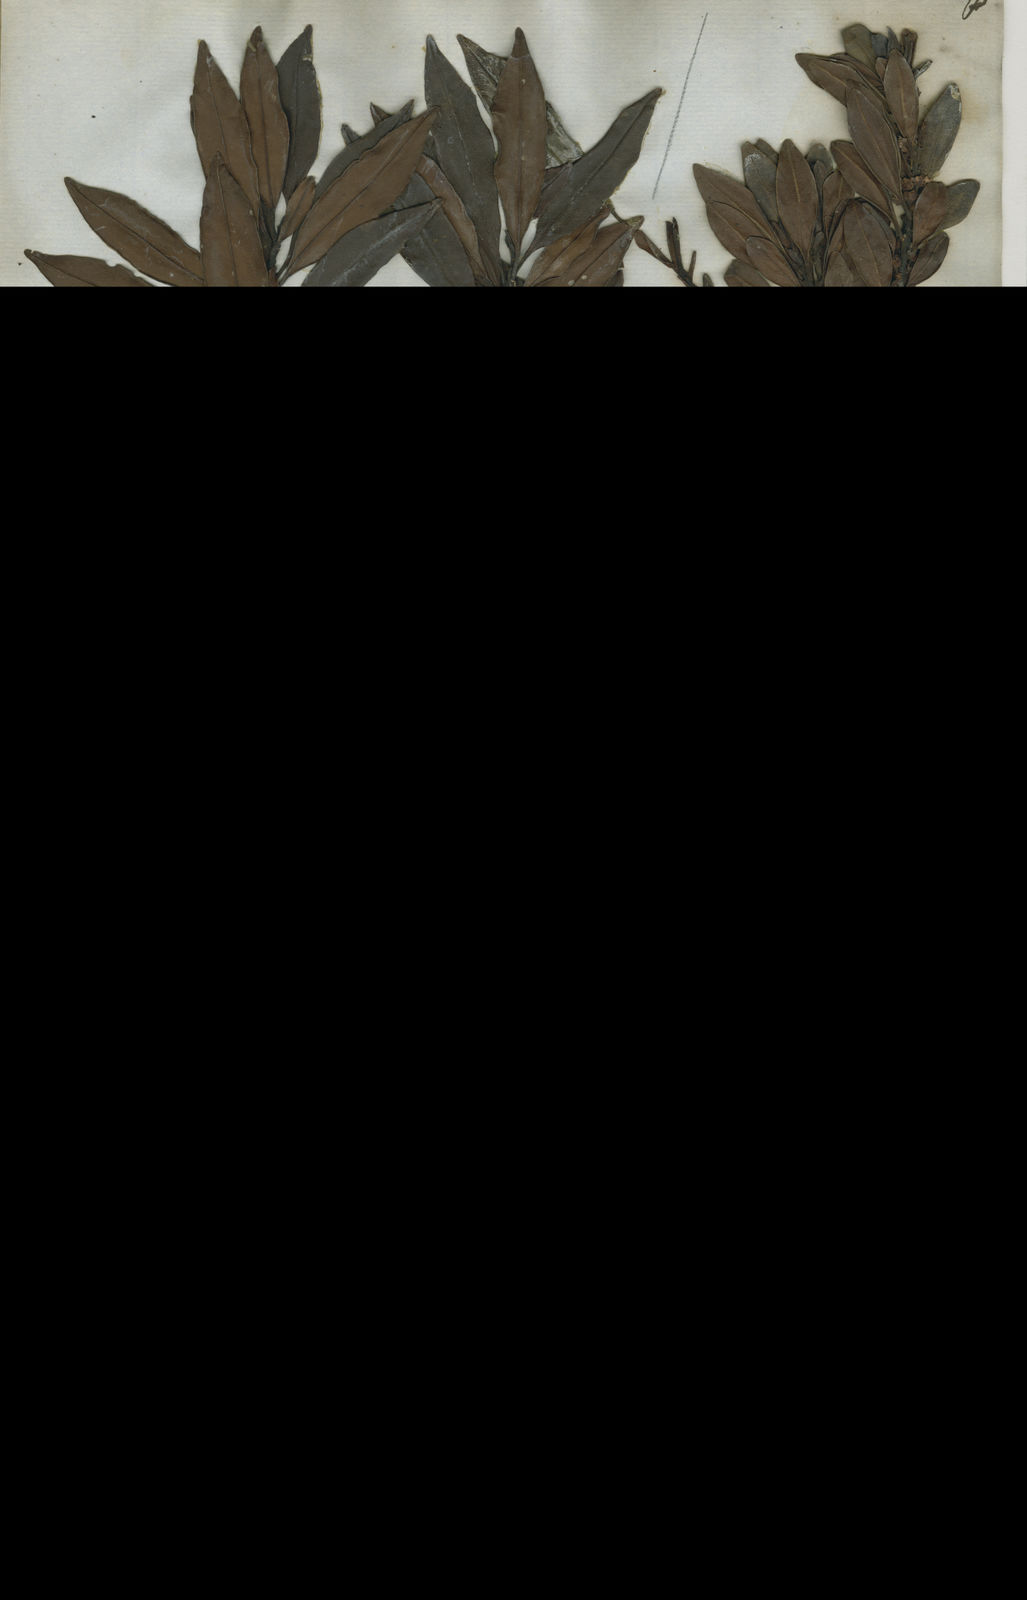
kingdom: Plantae
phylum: Tracheophyta
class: Magnoliopsida
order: Ericales
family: Primulaceae
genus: Myrsine
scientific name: Myrsine avenis
